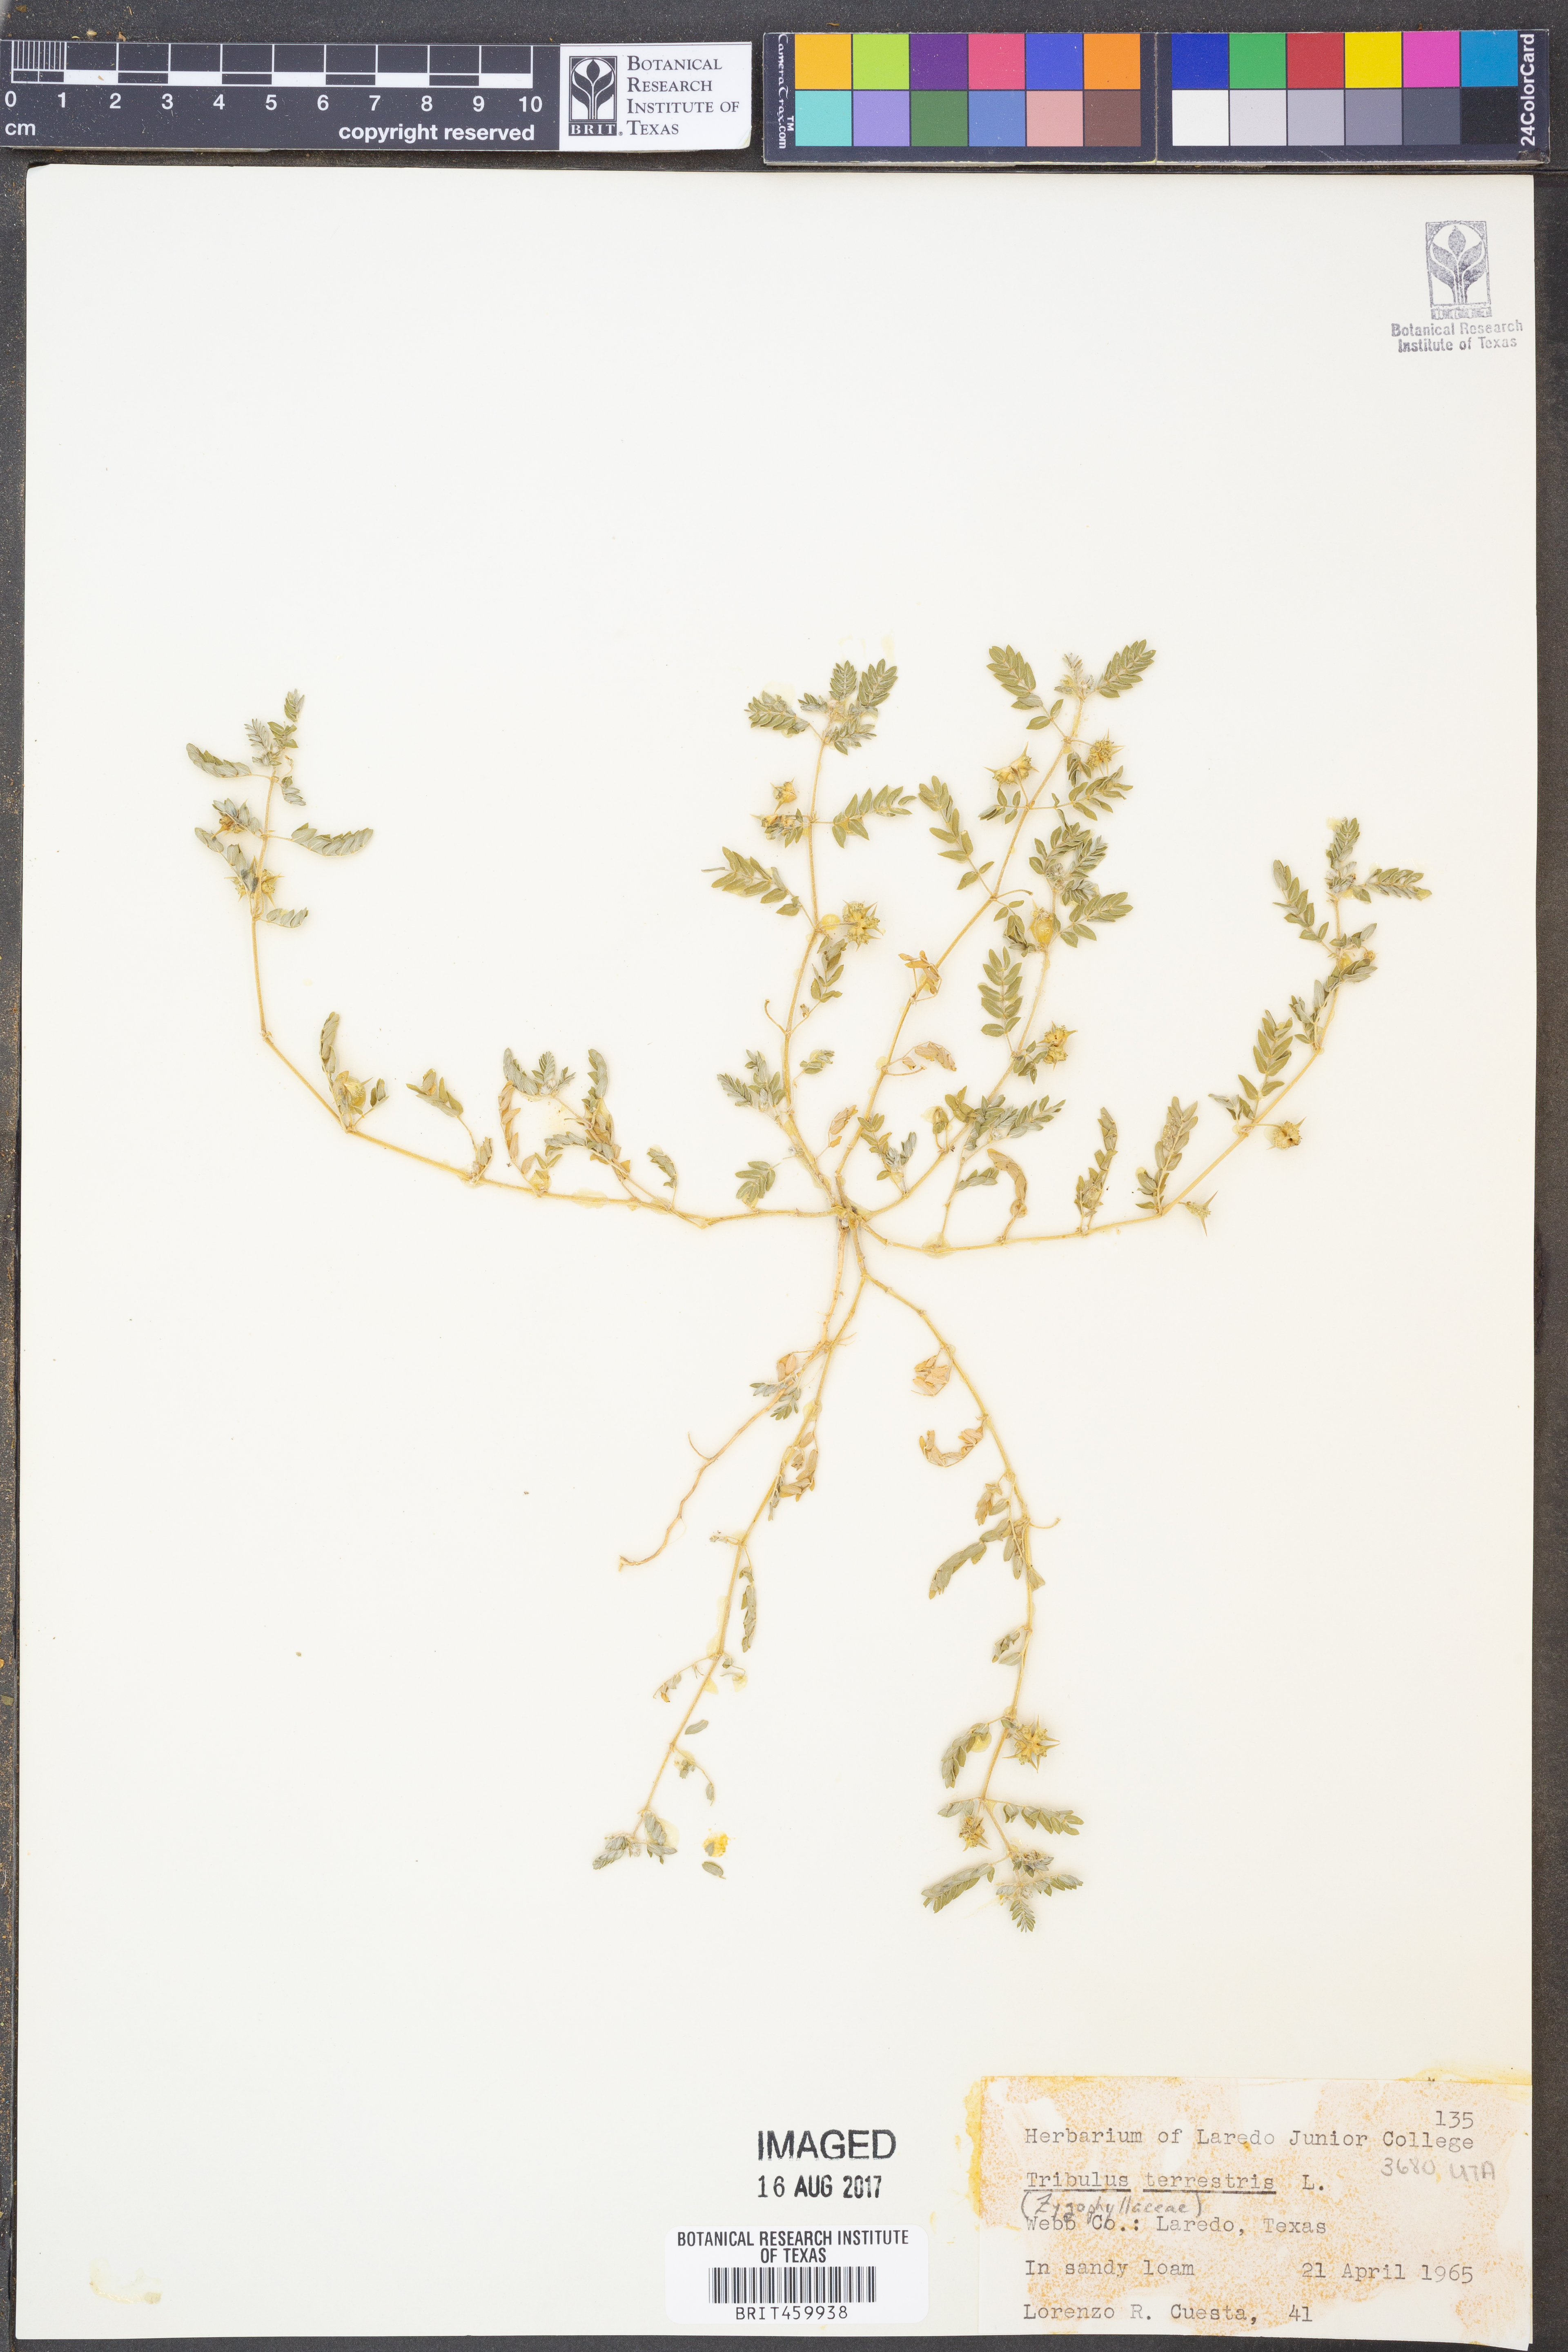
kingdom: Plantae
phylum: Tracheophyta
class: Magnoliopsida
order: Zygophyllales
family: Zygophyllaceae
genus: Tribulus
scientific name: Tribulus terrestris
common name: Puncturevine
